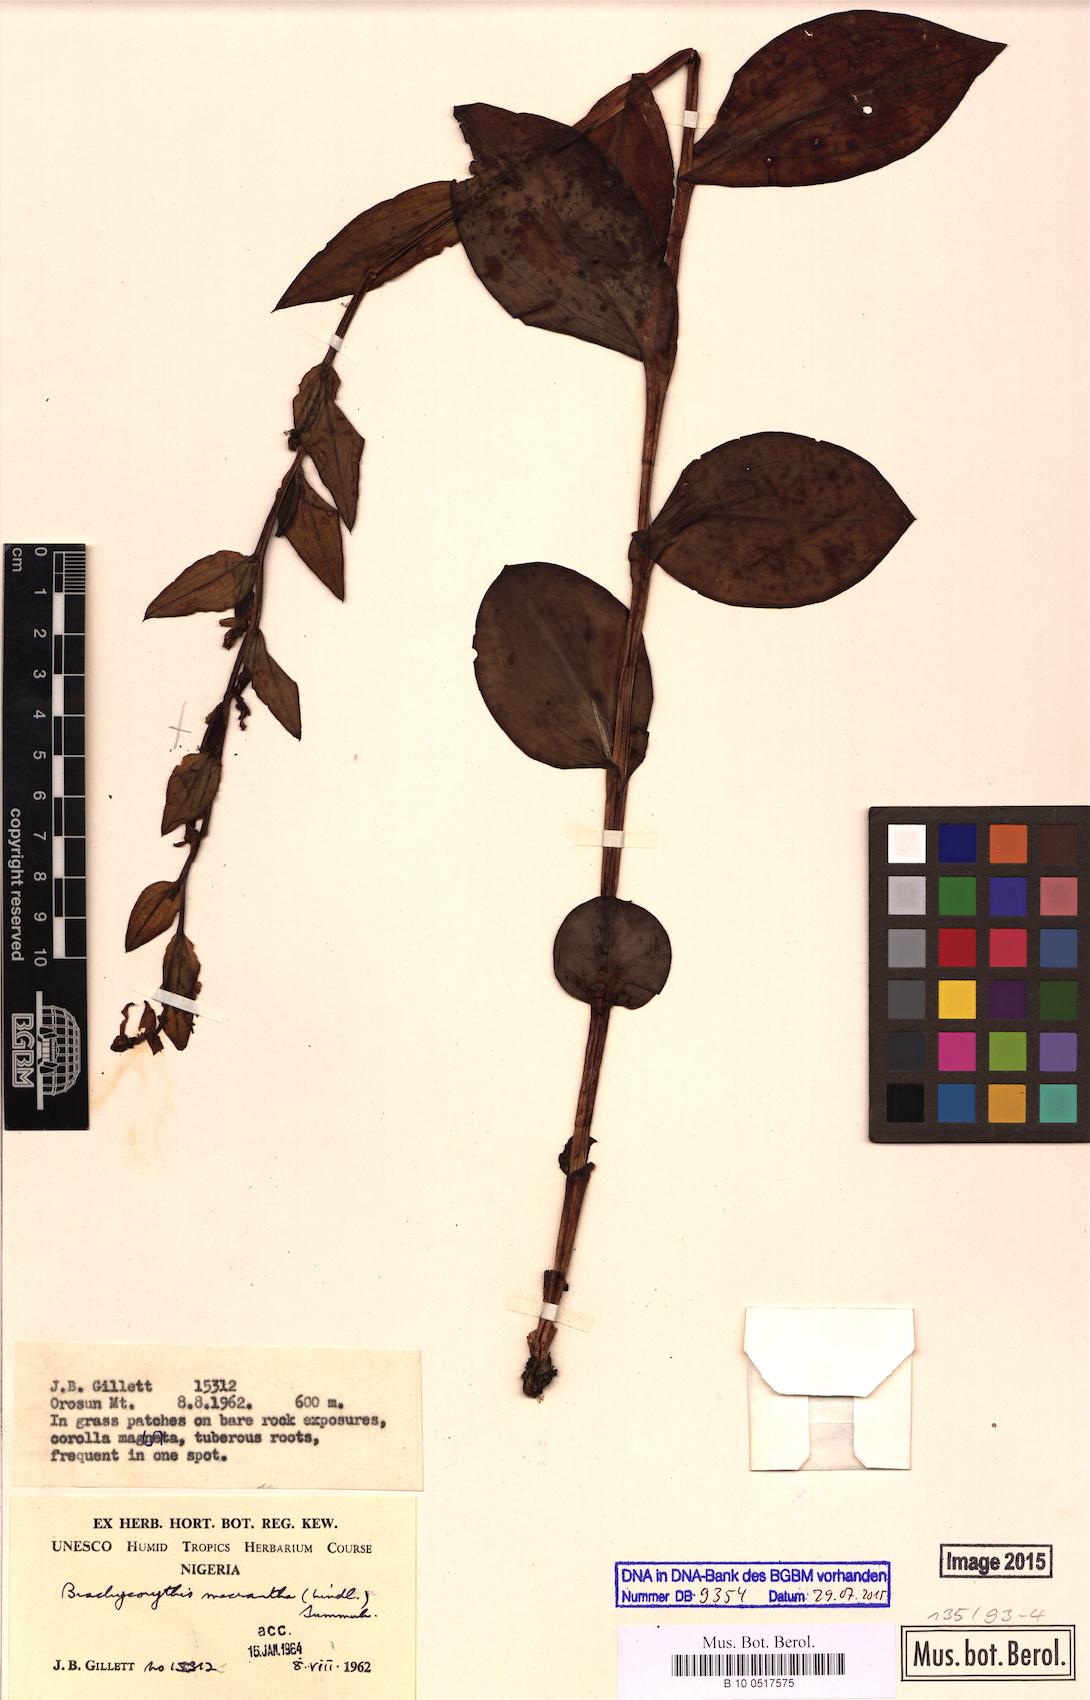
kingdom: Plantae
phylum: Tracheophyta
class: Liliopsida
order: Asparagales
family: Orchidaceae
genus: Brachycorythis
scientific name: Brachycorythis macrantha
